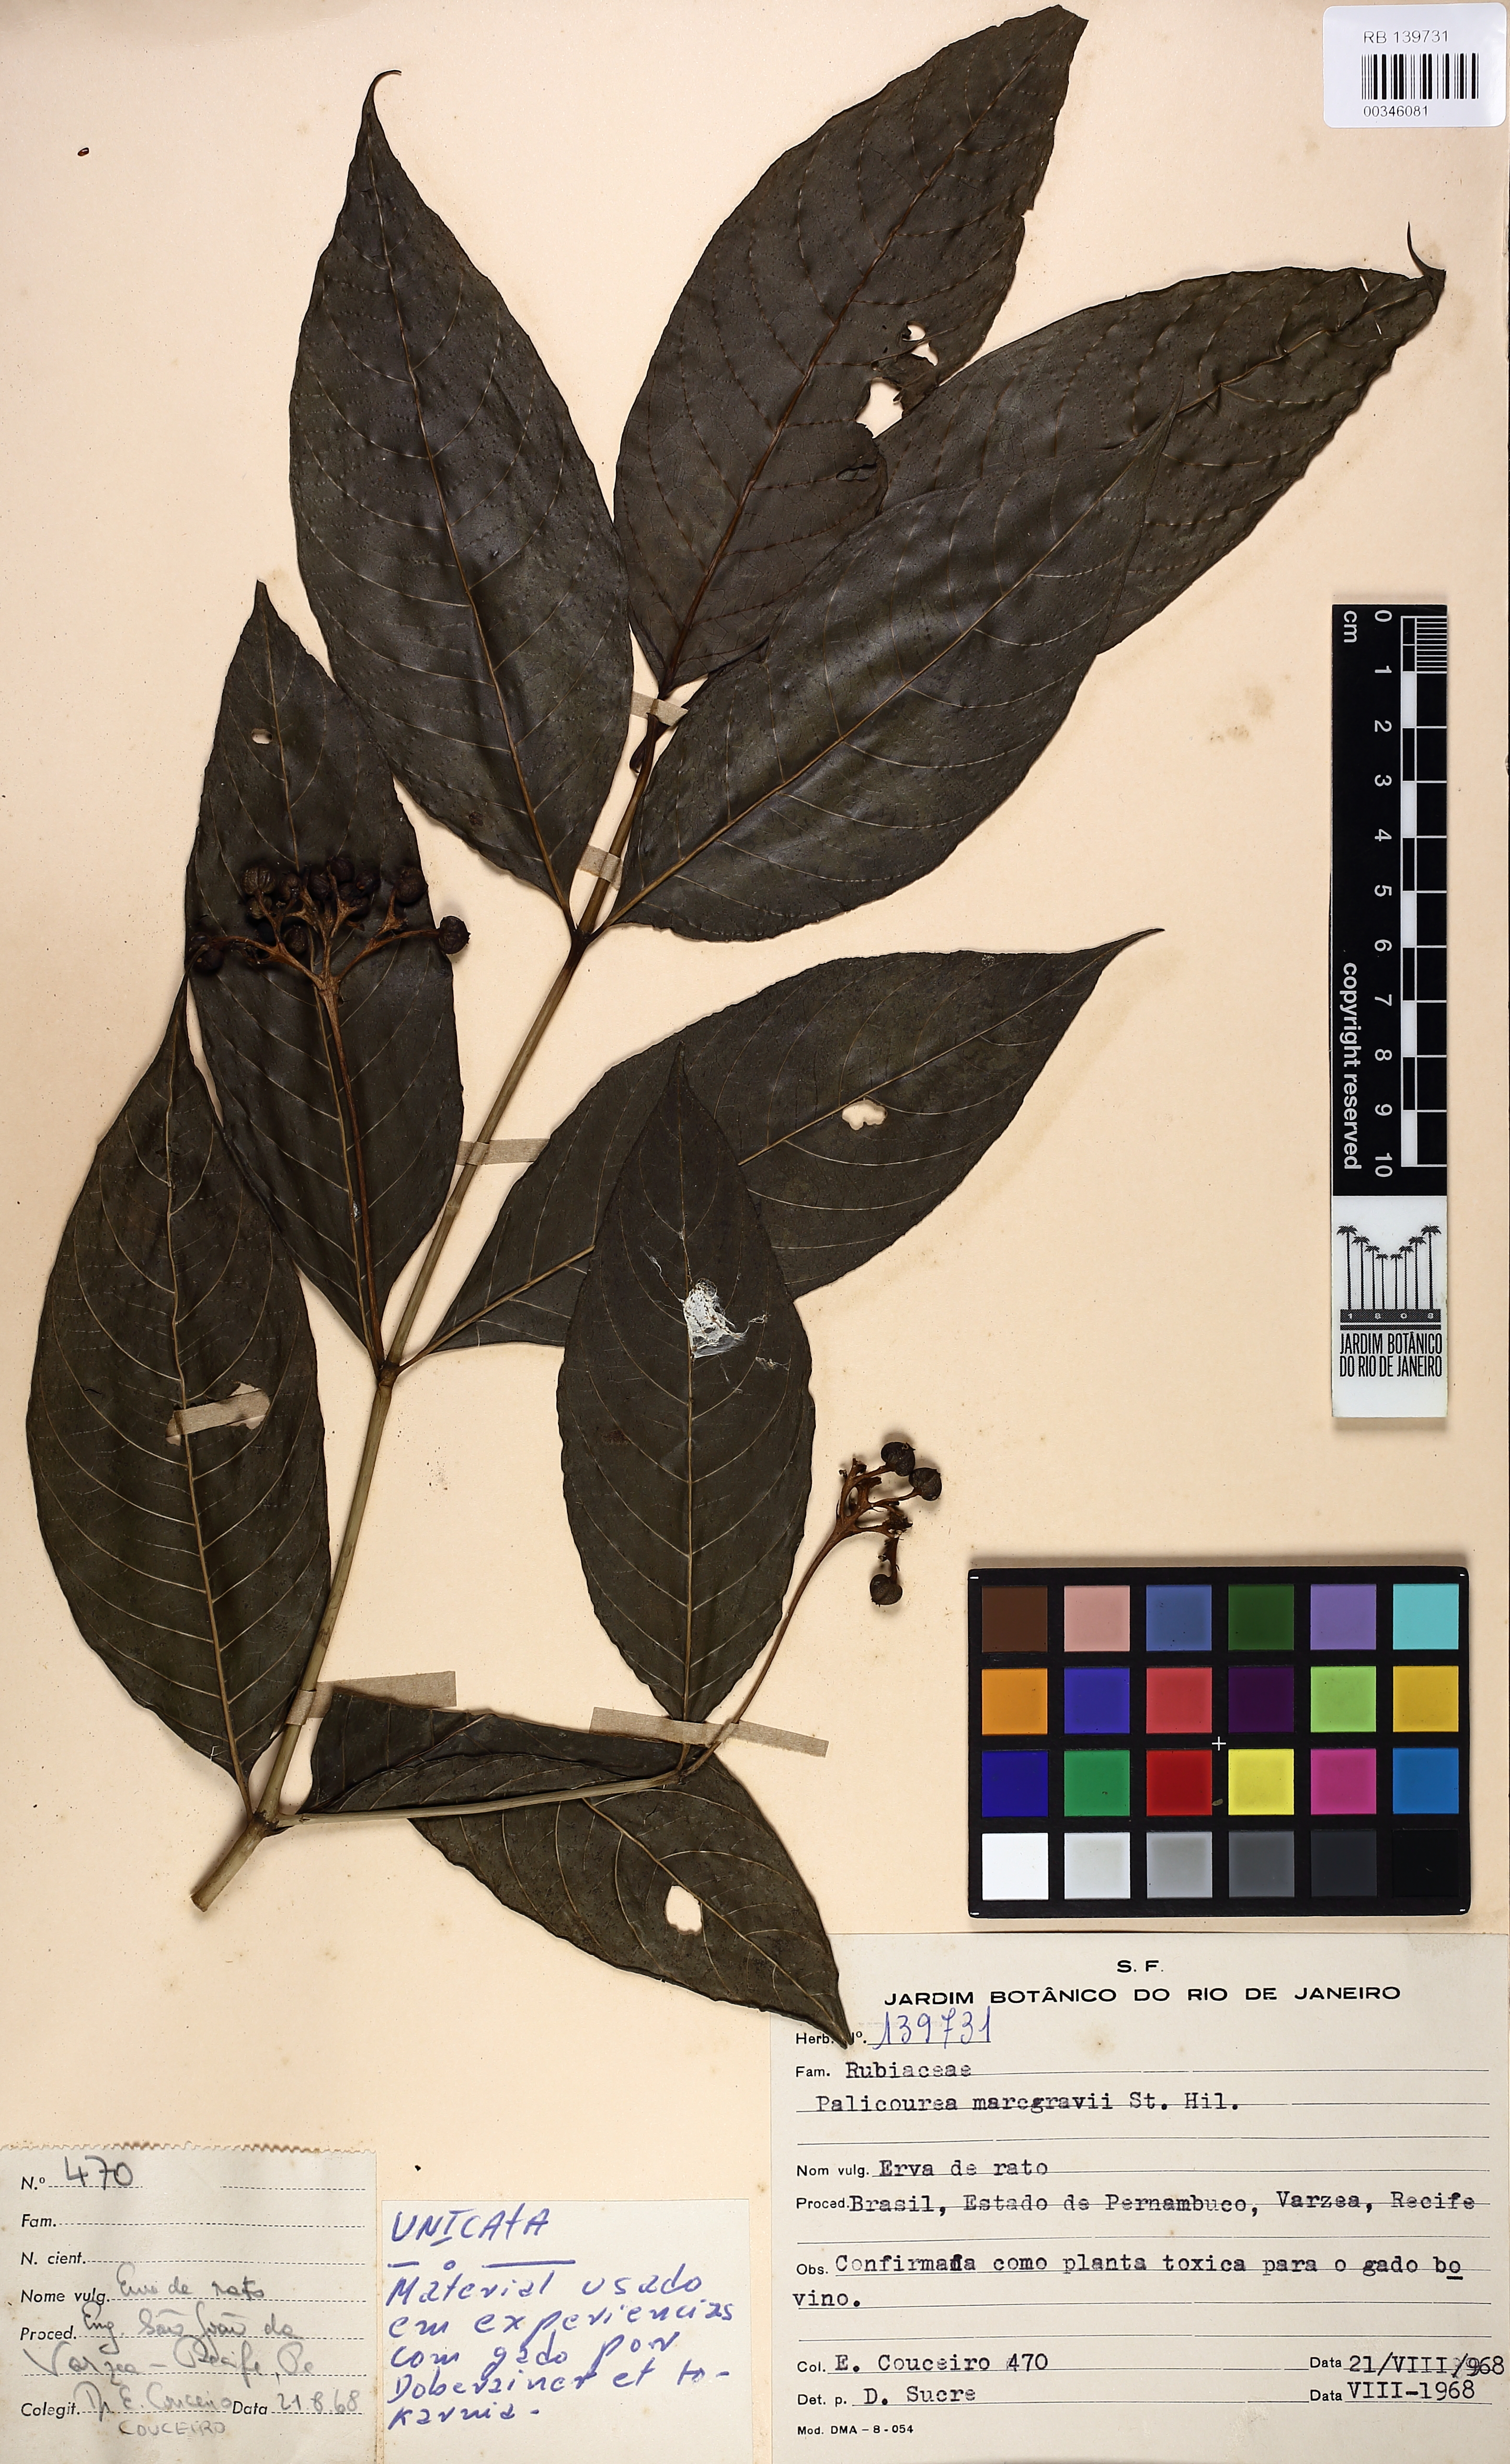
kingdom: Plantae
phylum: Tracheophyta
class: Magnoliopsida
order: Gentianales
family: Rubiaceae
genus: Palicourea
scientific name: Palicourea marcgravii
